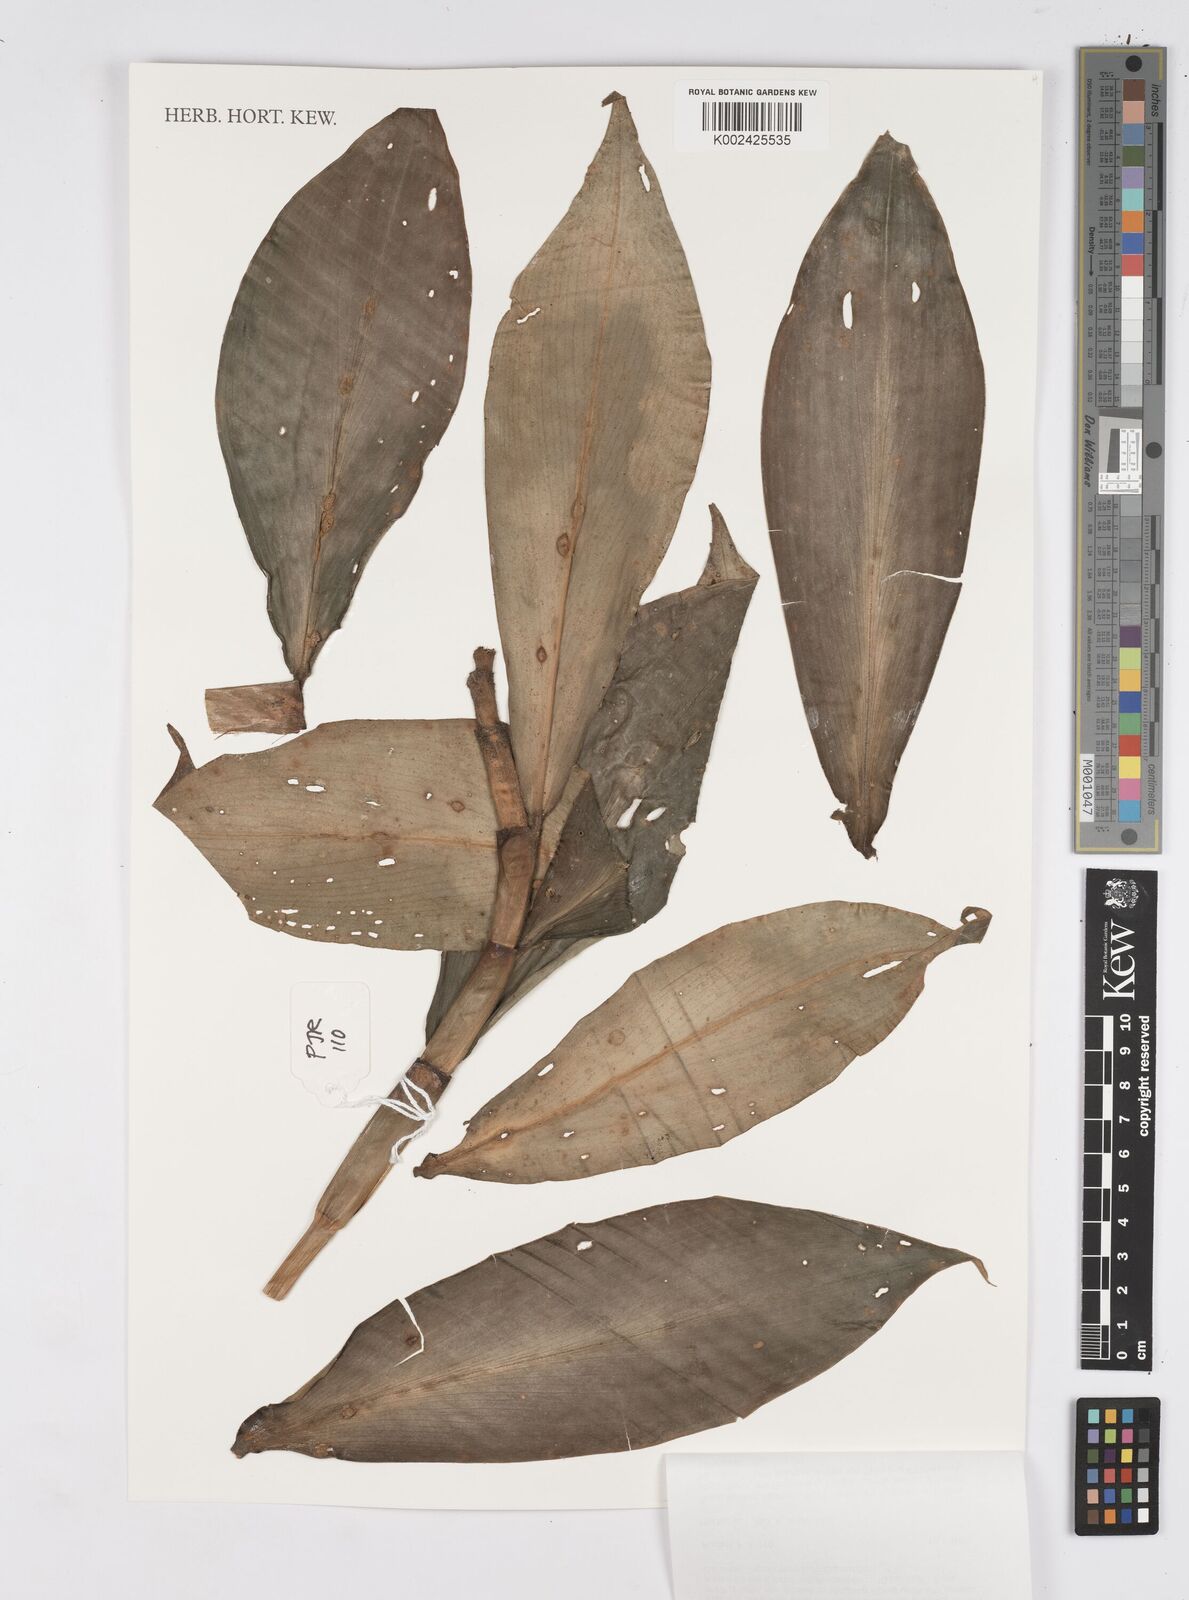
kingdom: Plantae
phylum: Tracheophyta
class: Liliopsida
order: Zingiberales
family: Costaceae
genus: Tapeinochilos
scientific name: Tapeinochilos
